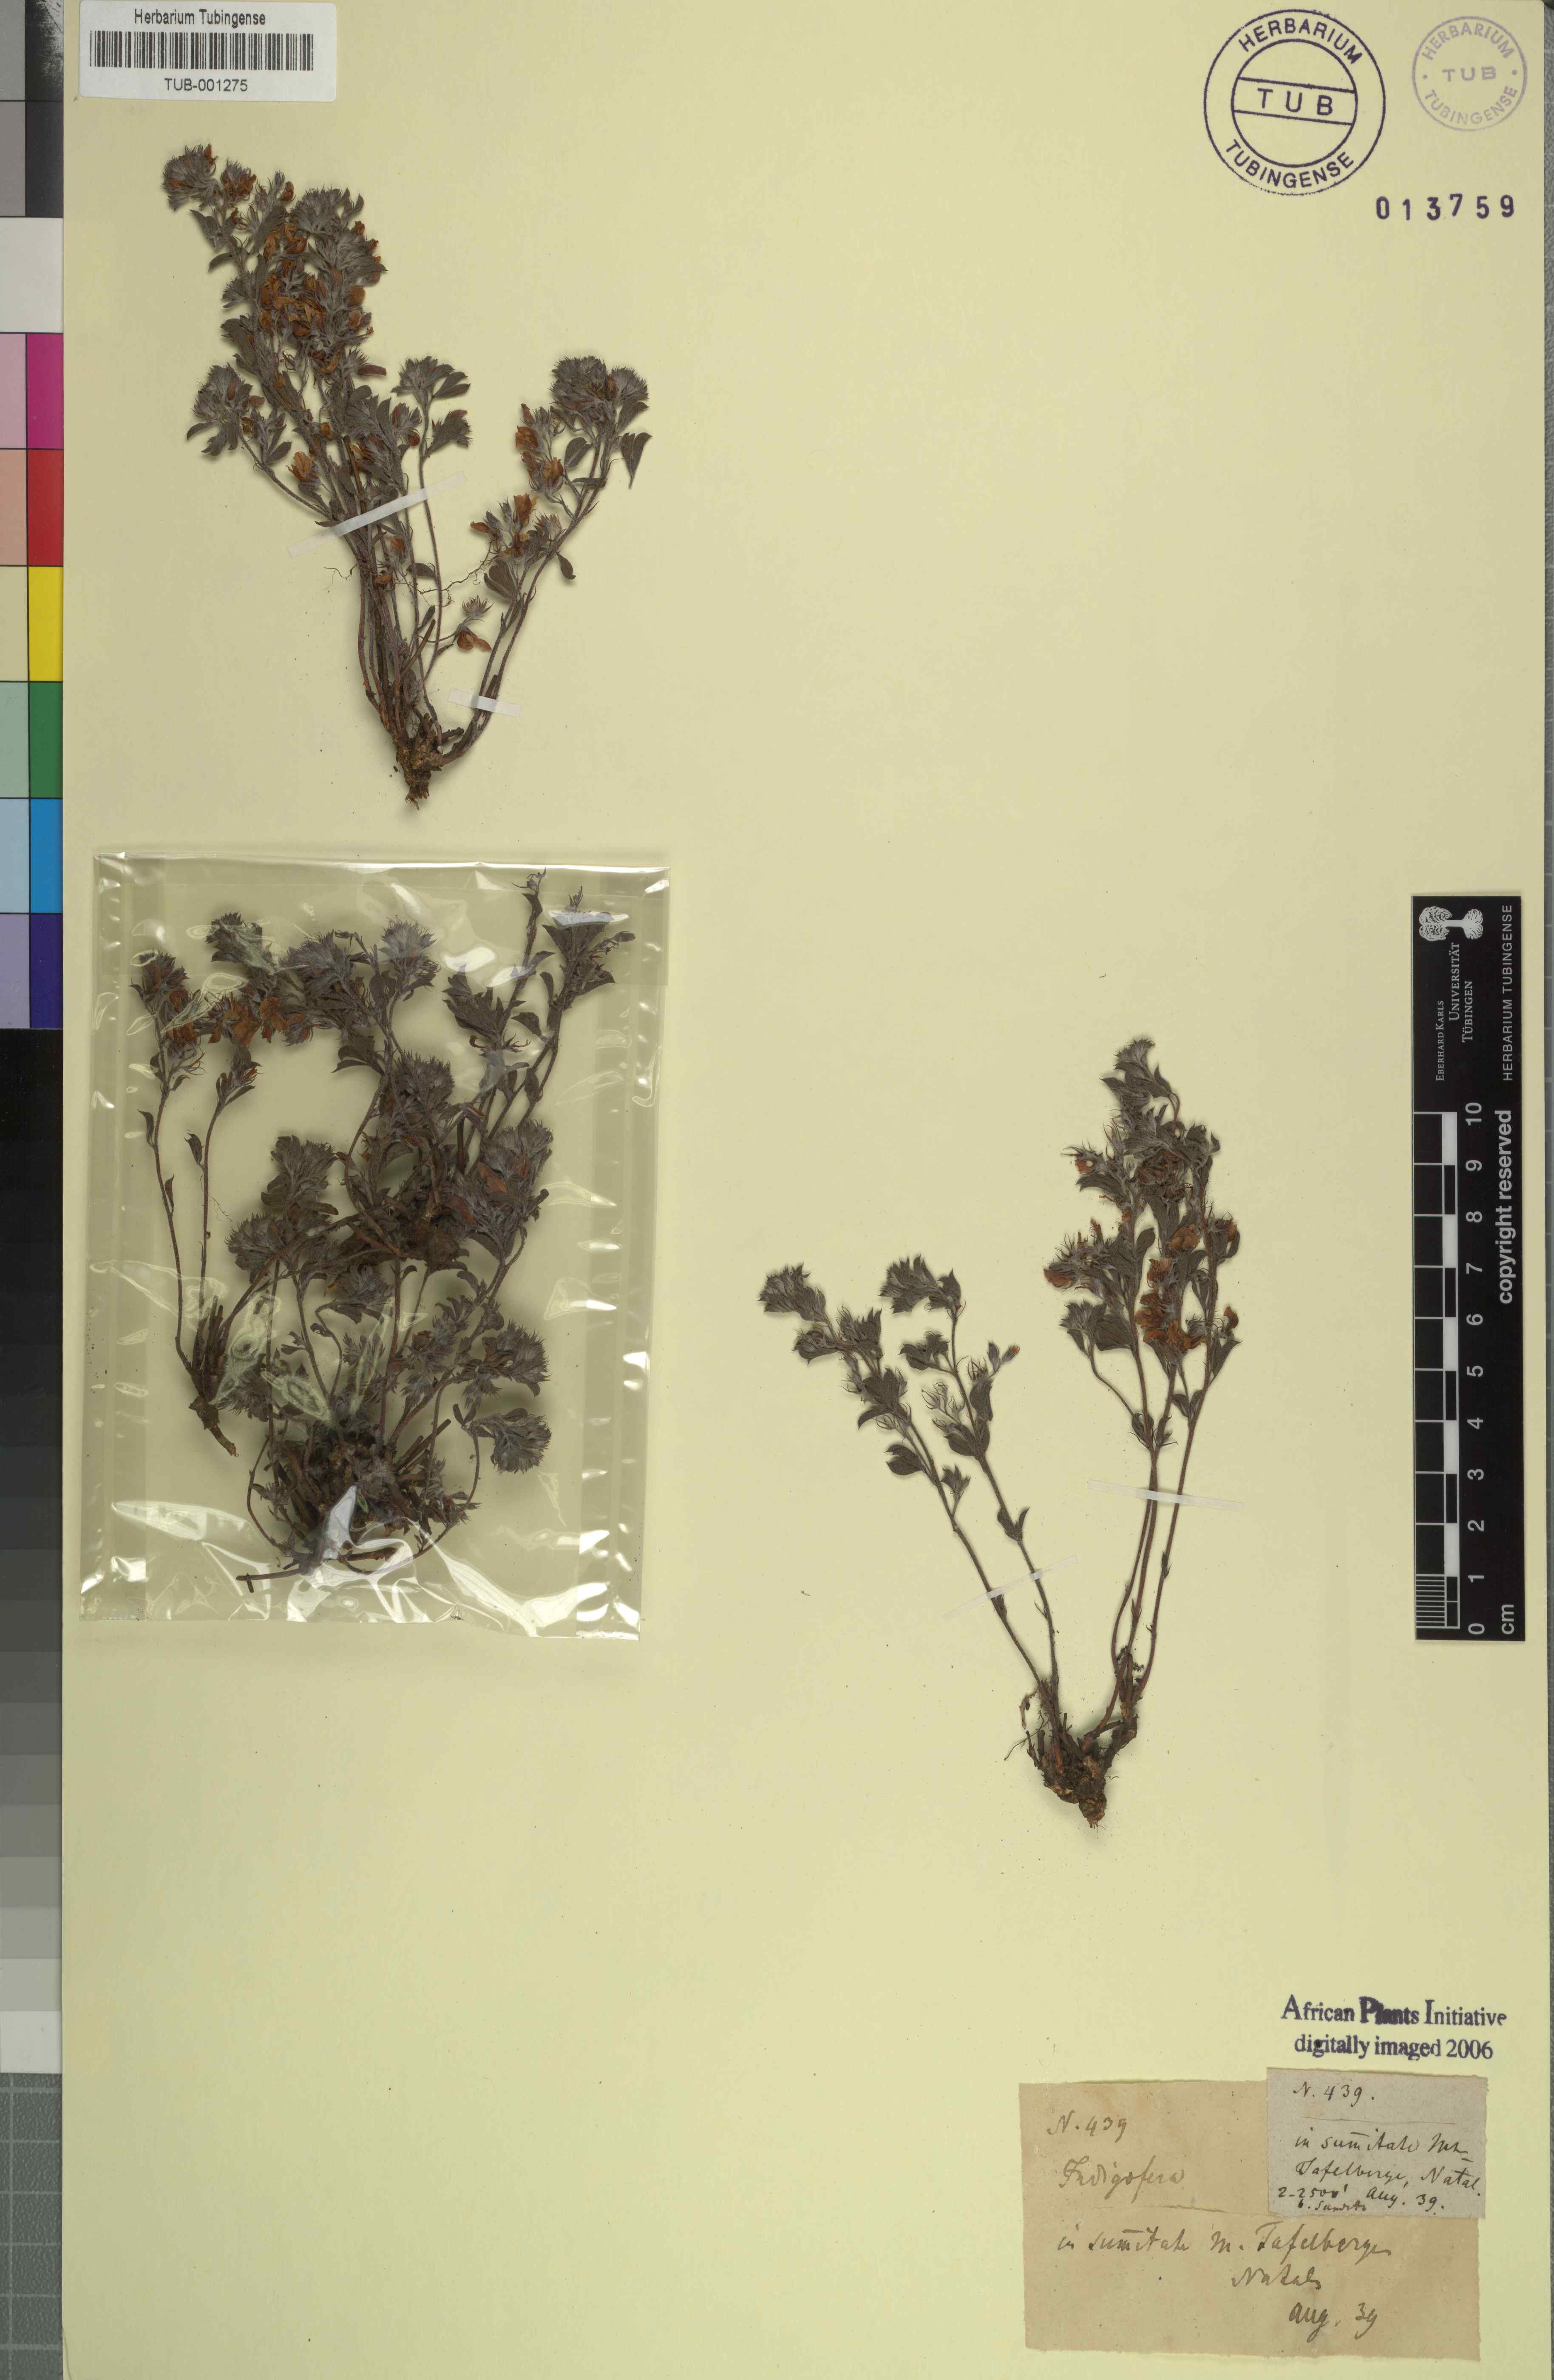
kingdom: Plantae
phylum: Tracheophyta
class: Magnoliopsida
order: Fabales
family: Fabaceae
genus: Indigofera
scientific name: Indigofera
